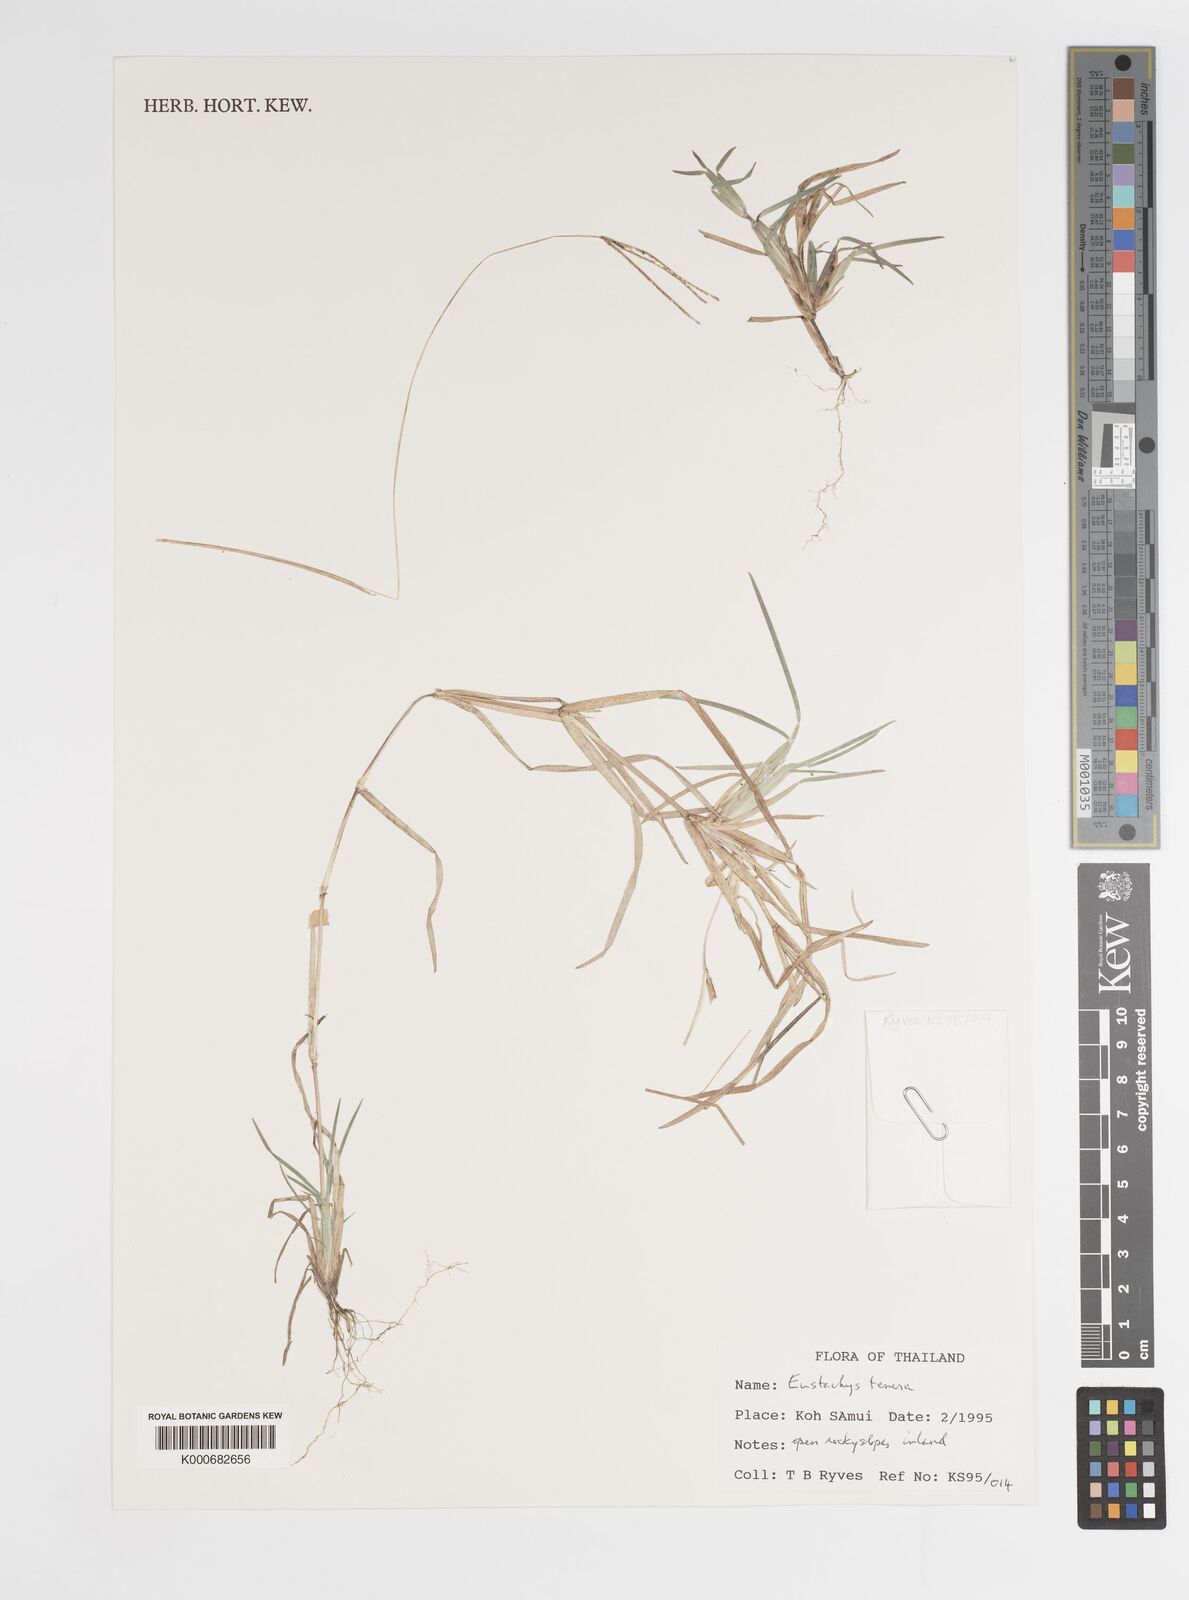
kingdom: Plantae
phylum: Tracheophyta
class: Liliopsida
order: Poales
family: Poaceae
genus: Eustachys
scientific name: Eustachys tenera
